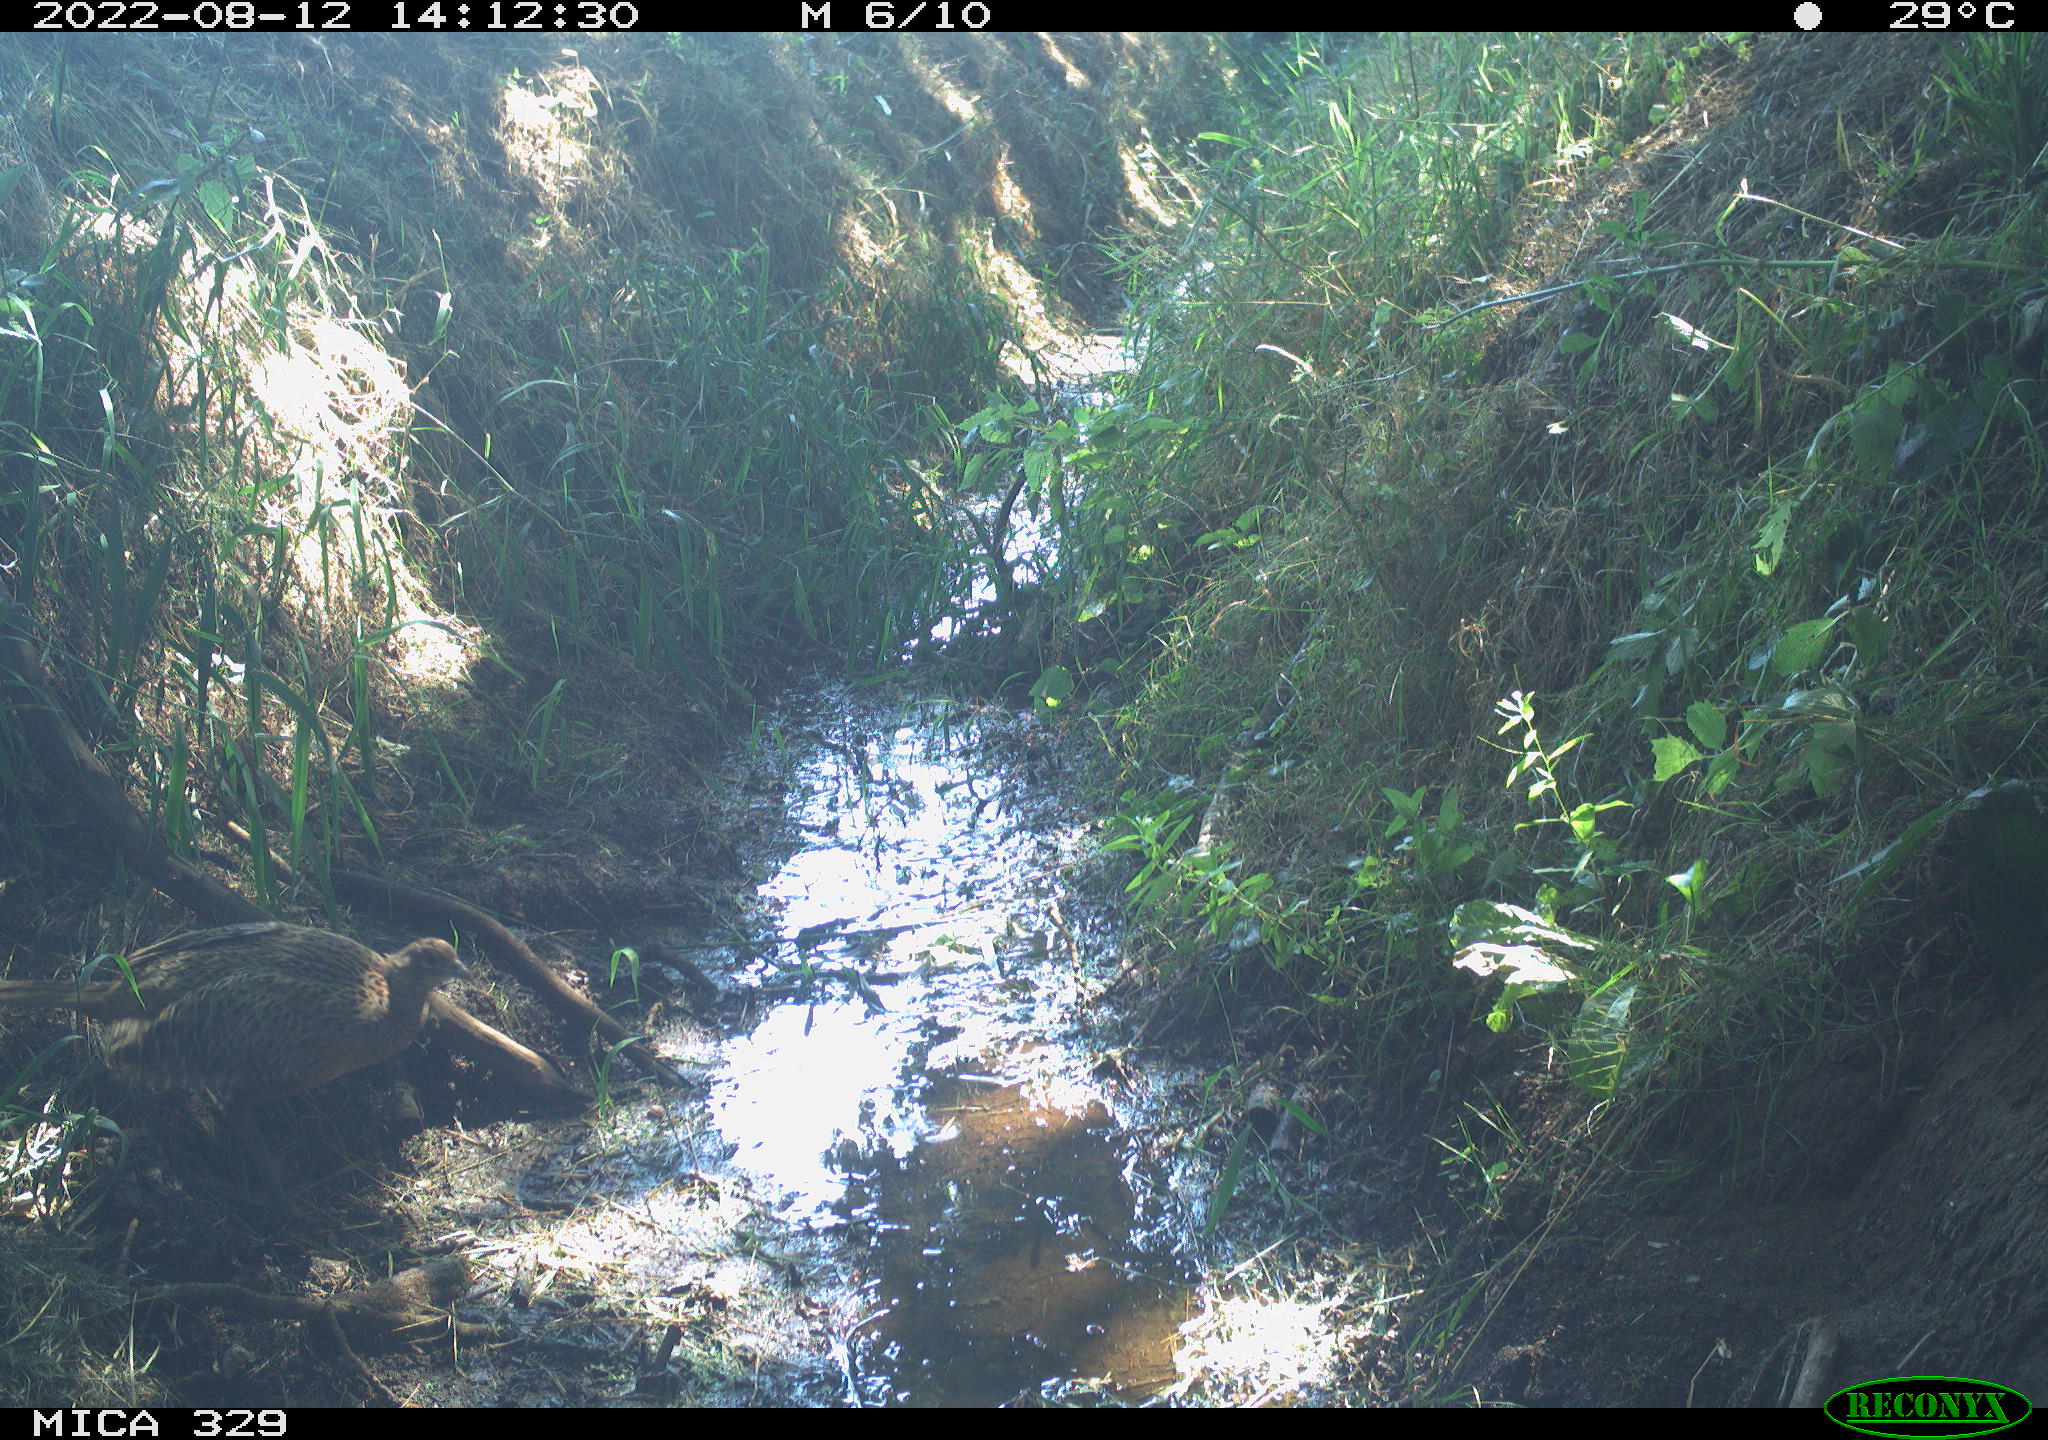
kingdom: Animalia
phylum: Chordata
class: Aves
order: Galliformes
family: Phasianidae
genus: Phasianus
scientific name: Phasianus colchicus
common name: Common pheasant
